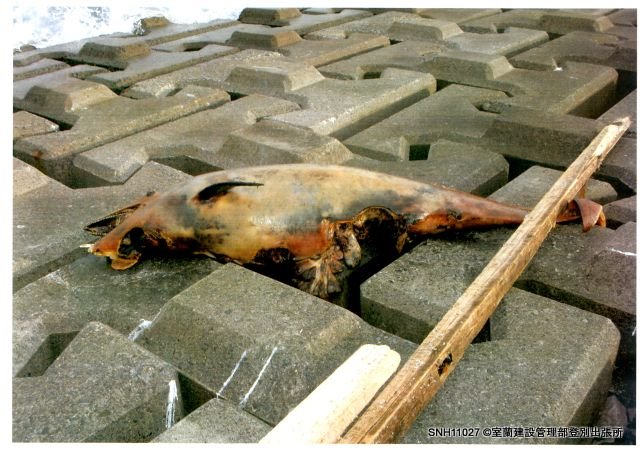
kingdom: Animalia
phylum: Chordata
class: Mammalia
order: Cetacea
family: Delphinidae
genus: Lagenorhynchus
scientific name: Lagenorhynchus obliquidens
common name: Pacific white-sided dolphin
